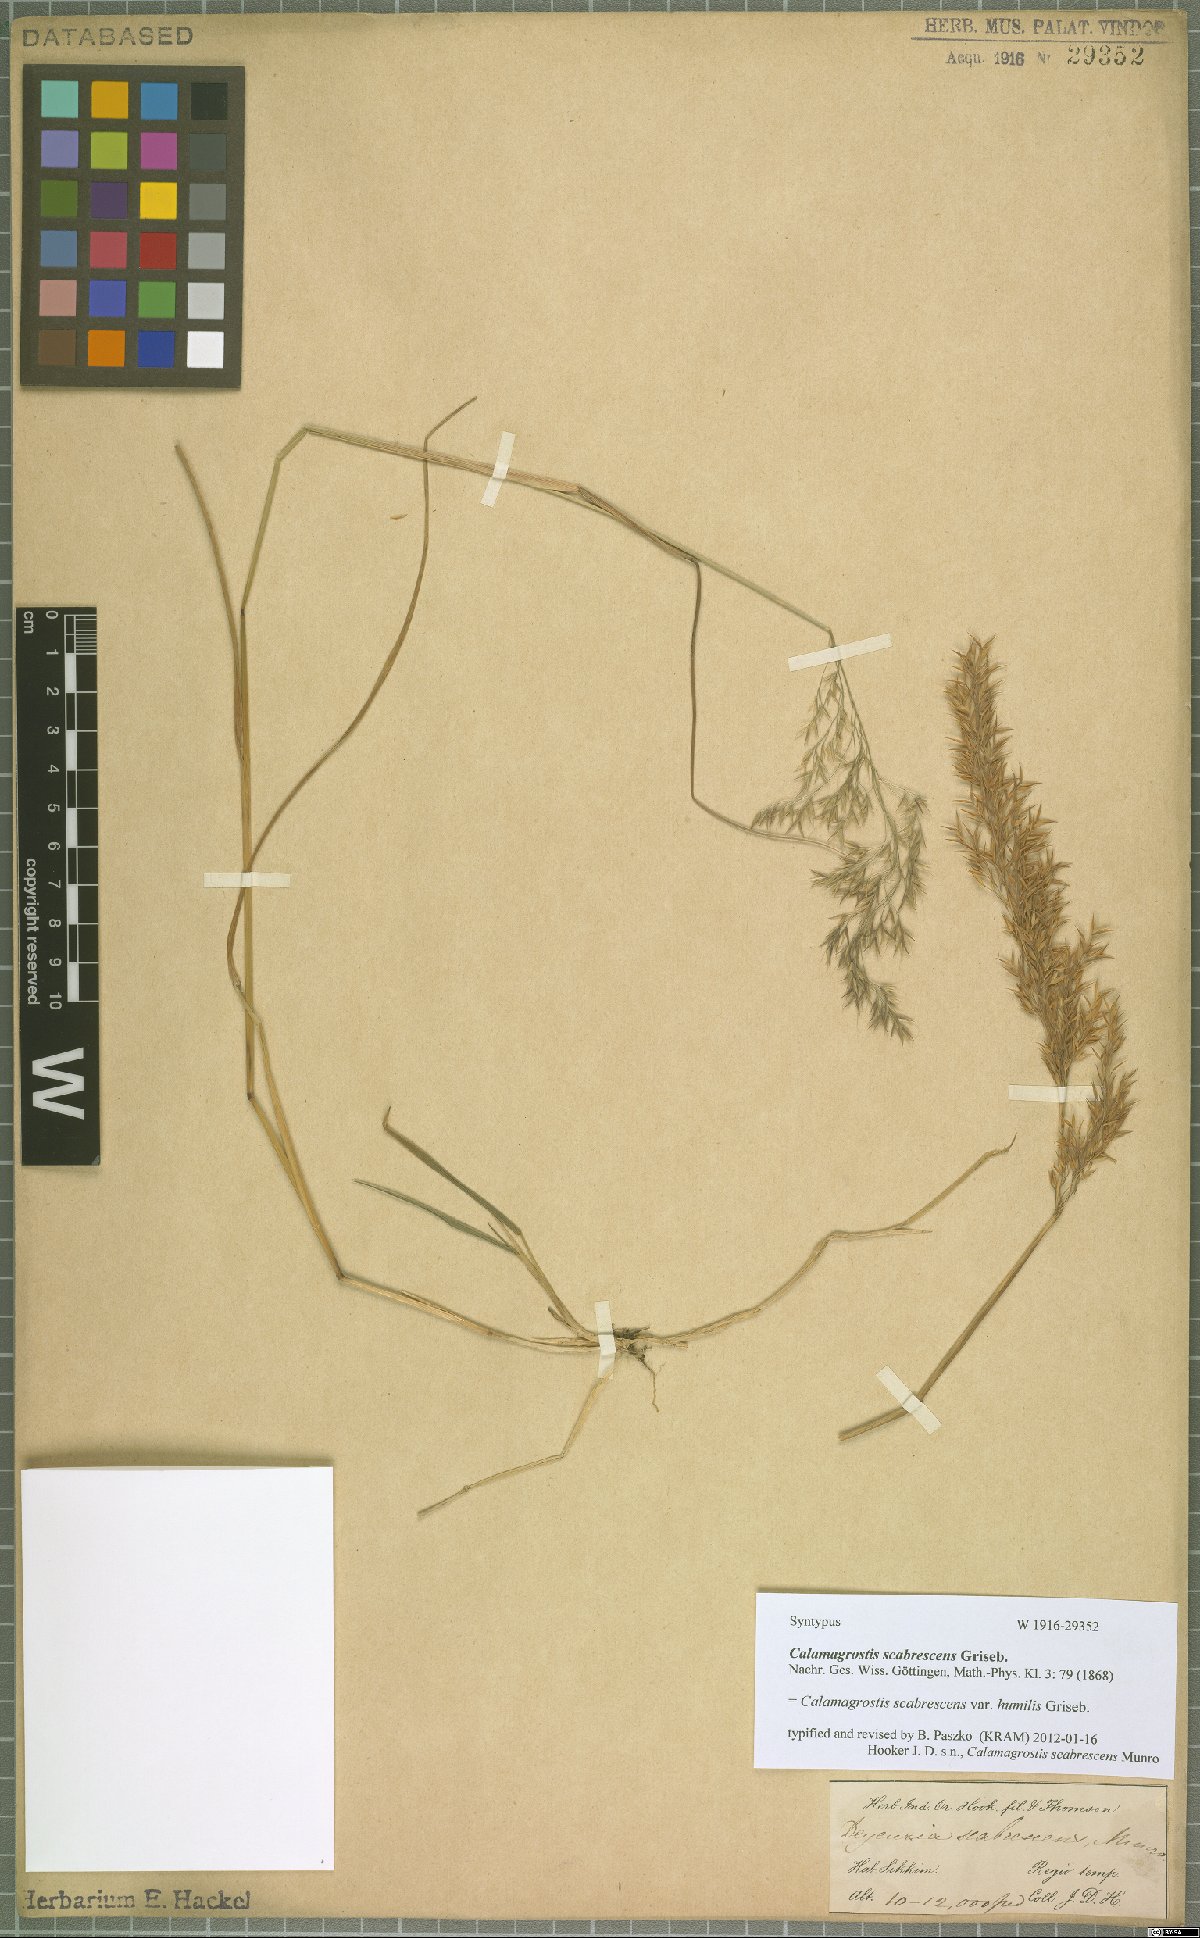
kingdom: Plantae
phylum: Tracheophyta
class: Liliopsida
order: Poales
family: Poaceae
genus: Calamagrostis
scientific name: Calamagrostis scabrescens
